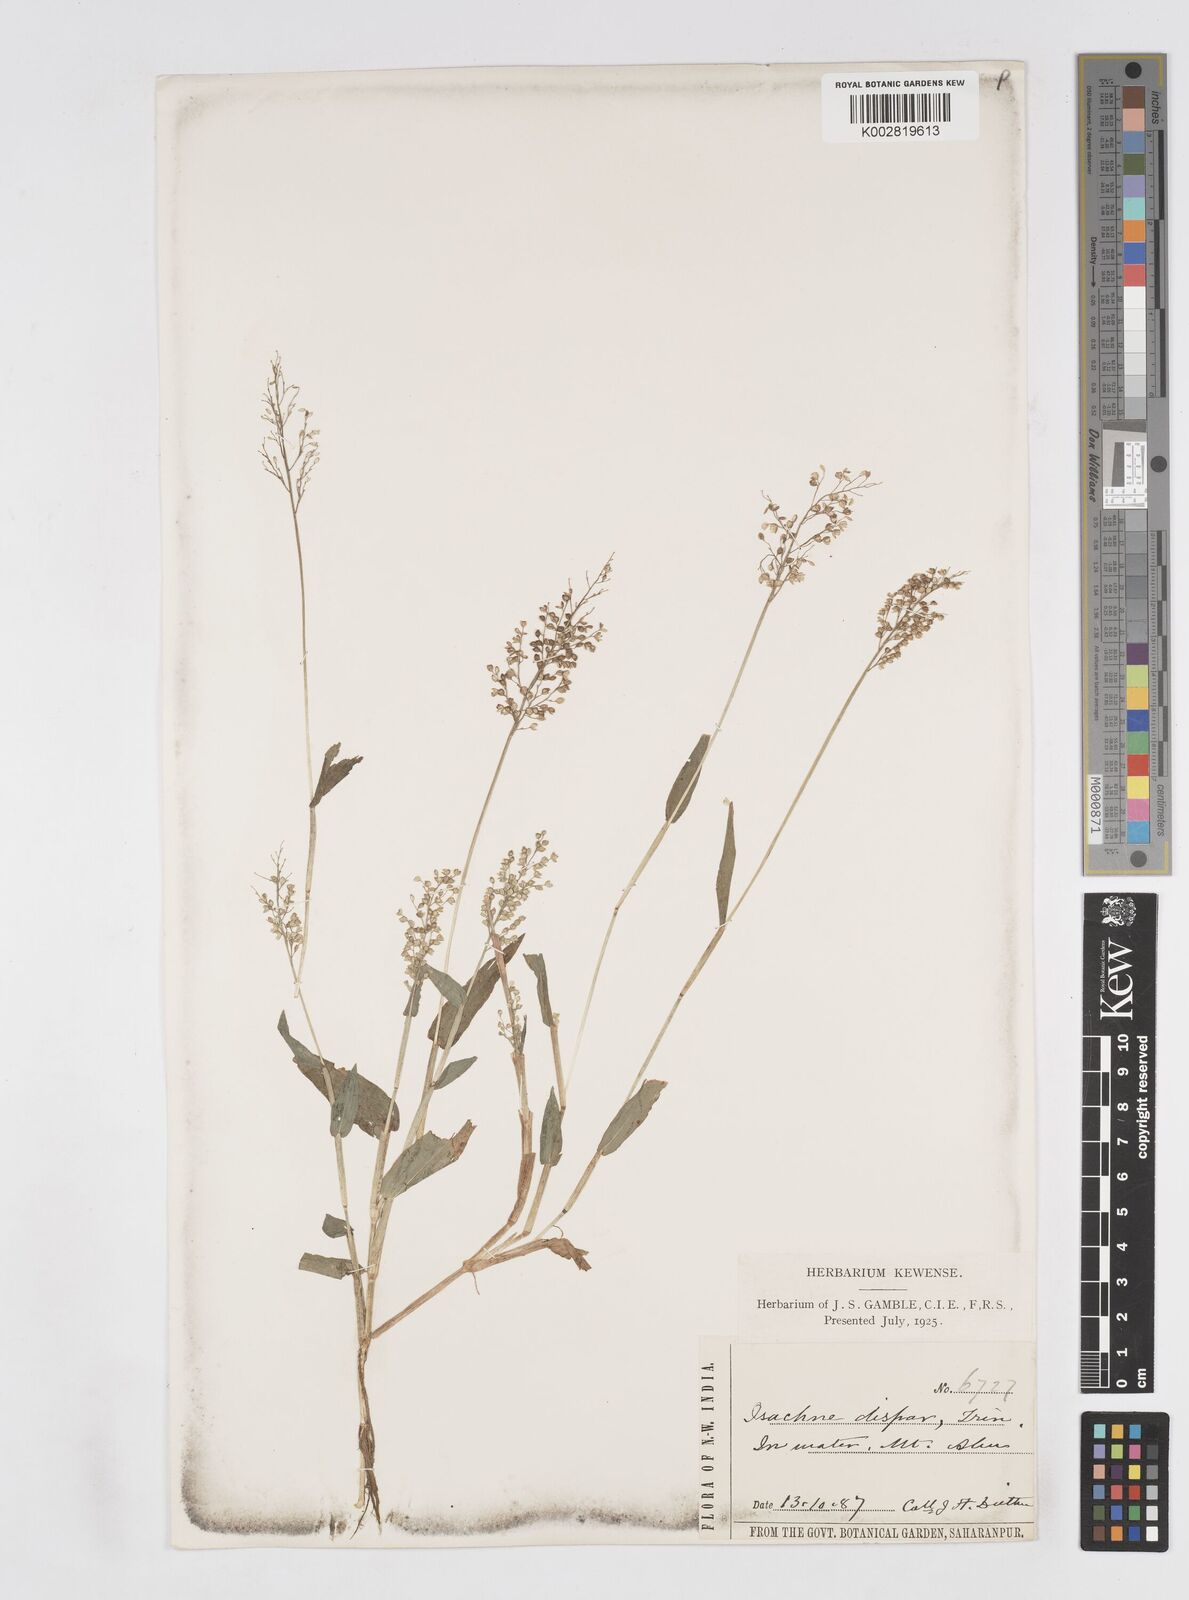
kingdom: Plantae
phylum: Tracheophyta
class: Liliopsida
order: Poales
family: Poaceae
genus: Isachne
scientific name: Isachne globosa
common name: Swamp millet
